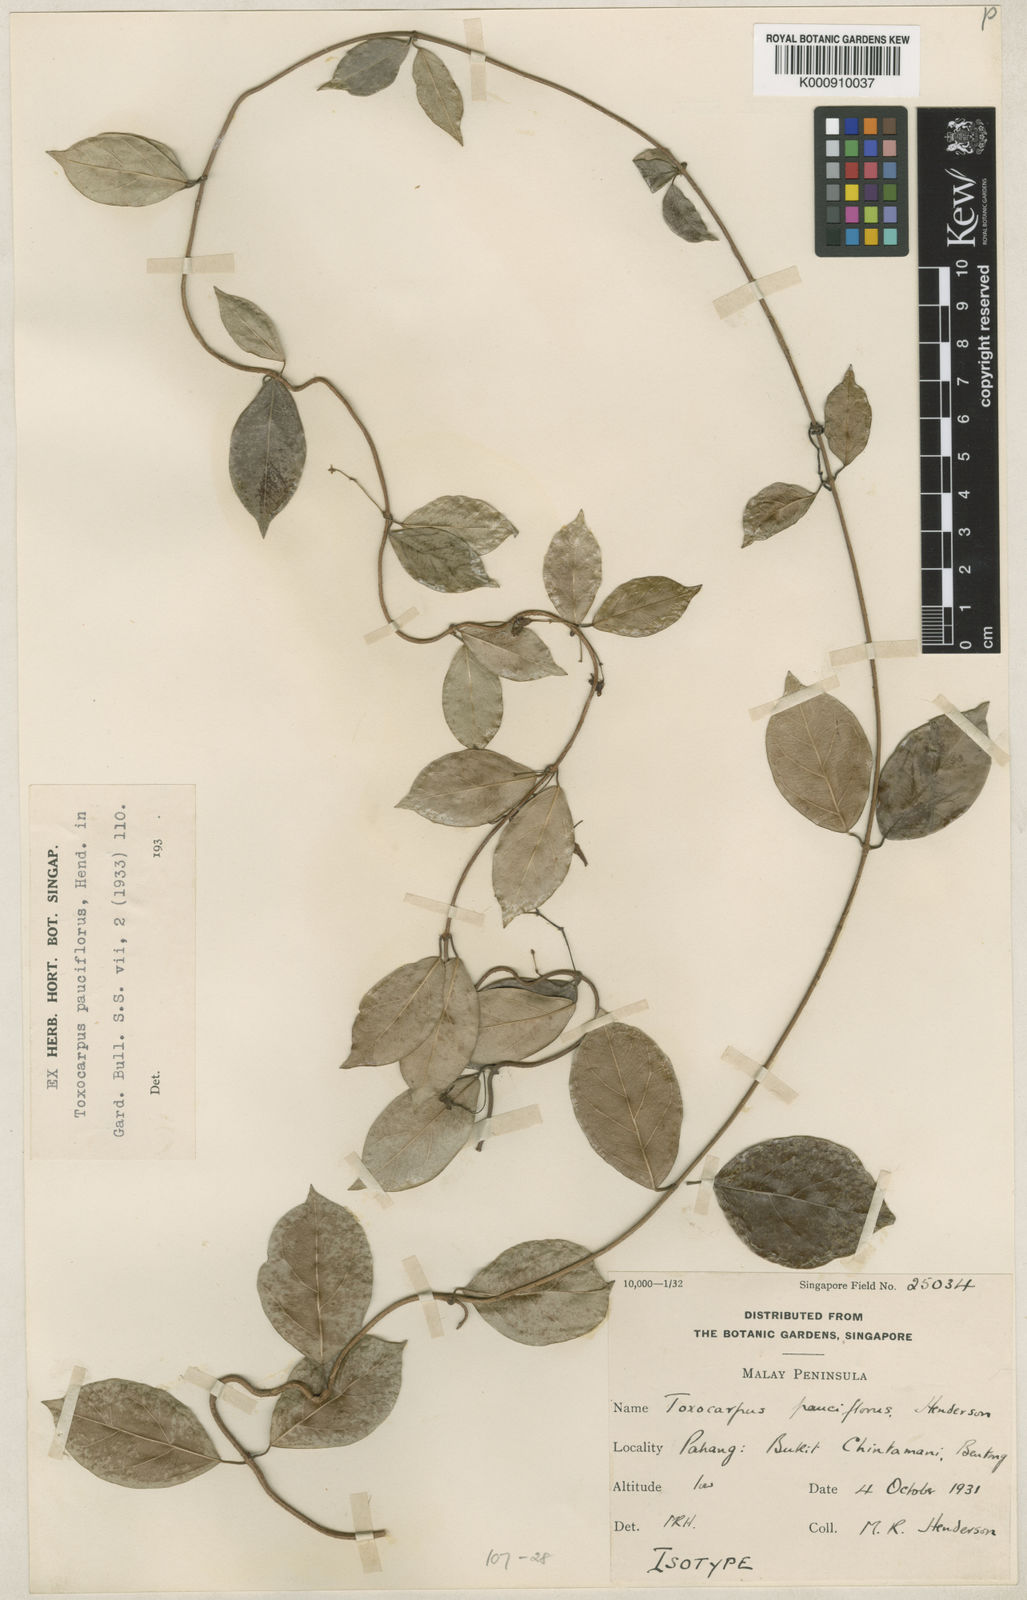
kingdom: Plantae
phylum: Tracheophyta
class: Magnoliopsida
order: Gentianales
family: Apocynaceae
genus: Secamone
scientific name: Secamone curtisii
